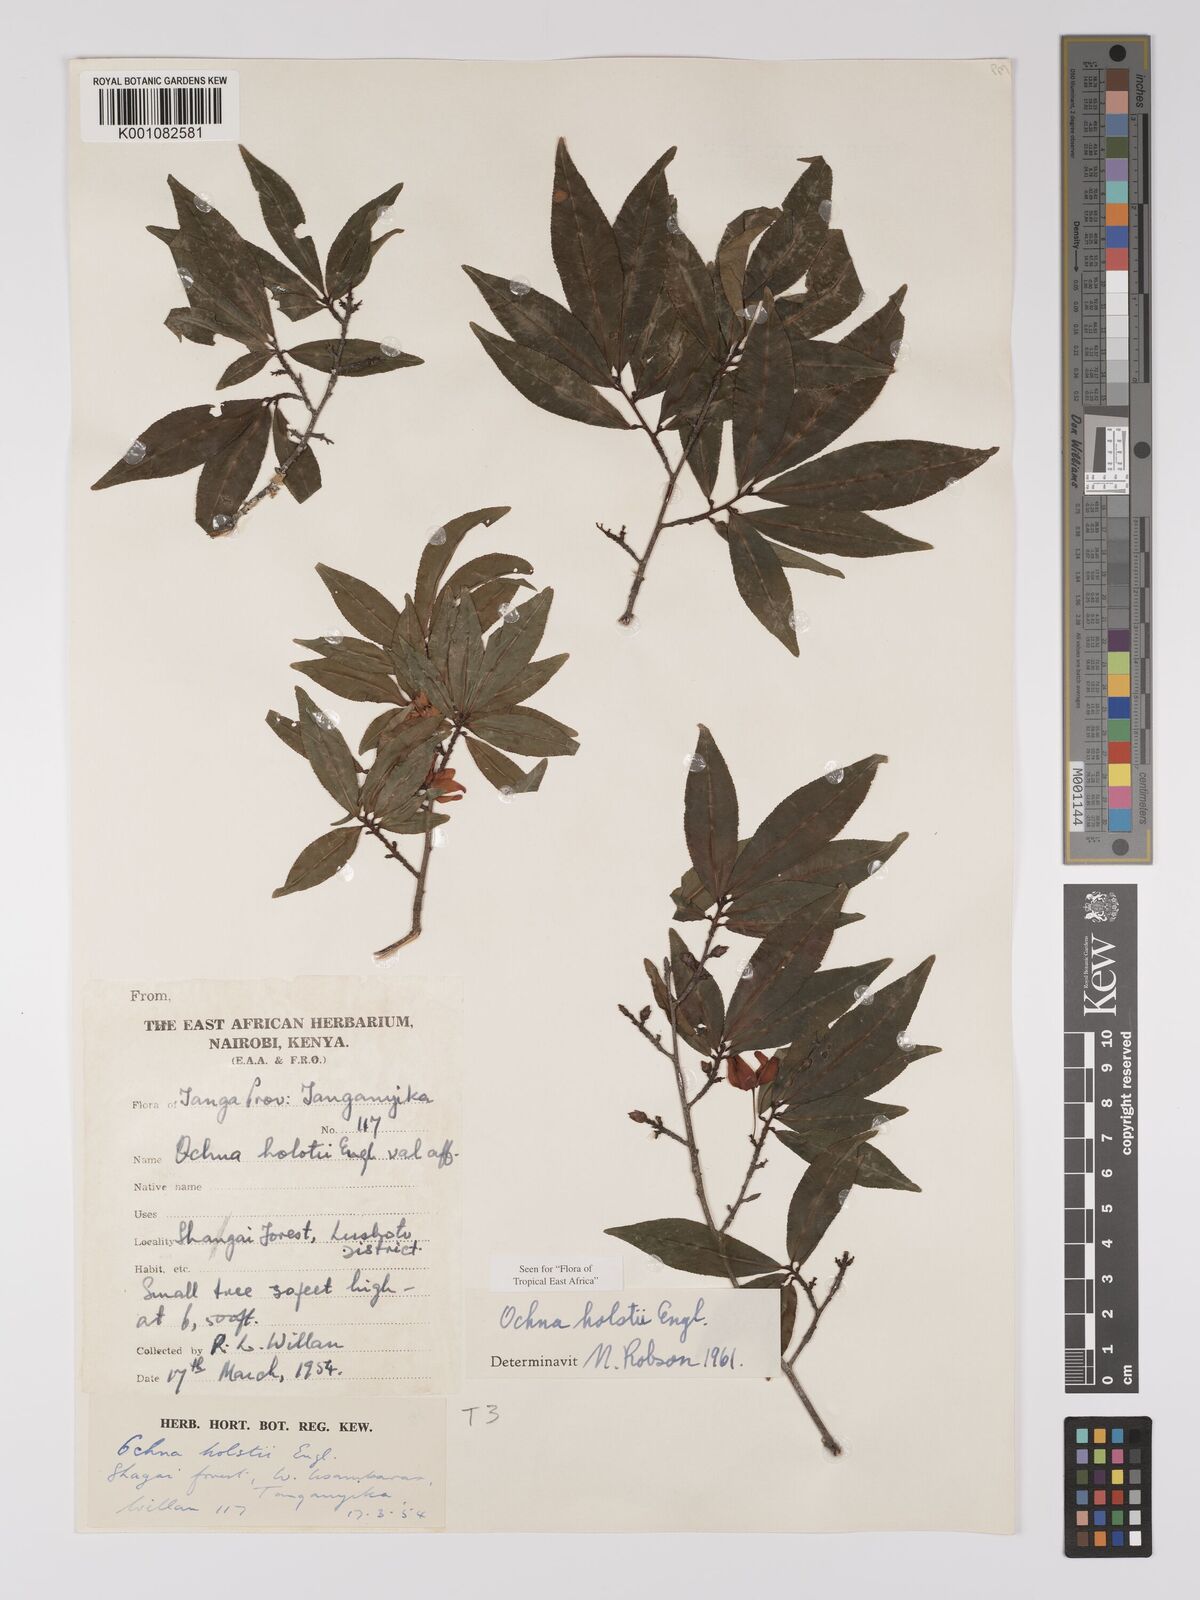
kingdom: Plantae
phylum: Tracheophyta
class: Magnoliopsida
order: Malpighiales
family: Ochnaceae
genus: Ochna
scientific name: Ochna holstii
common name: Red ironwood
